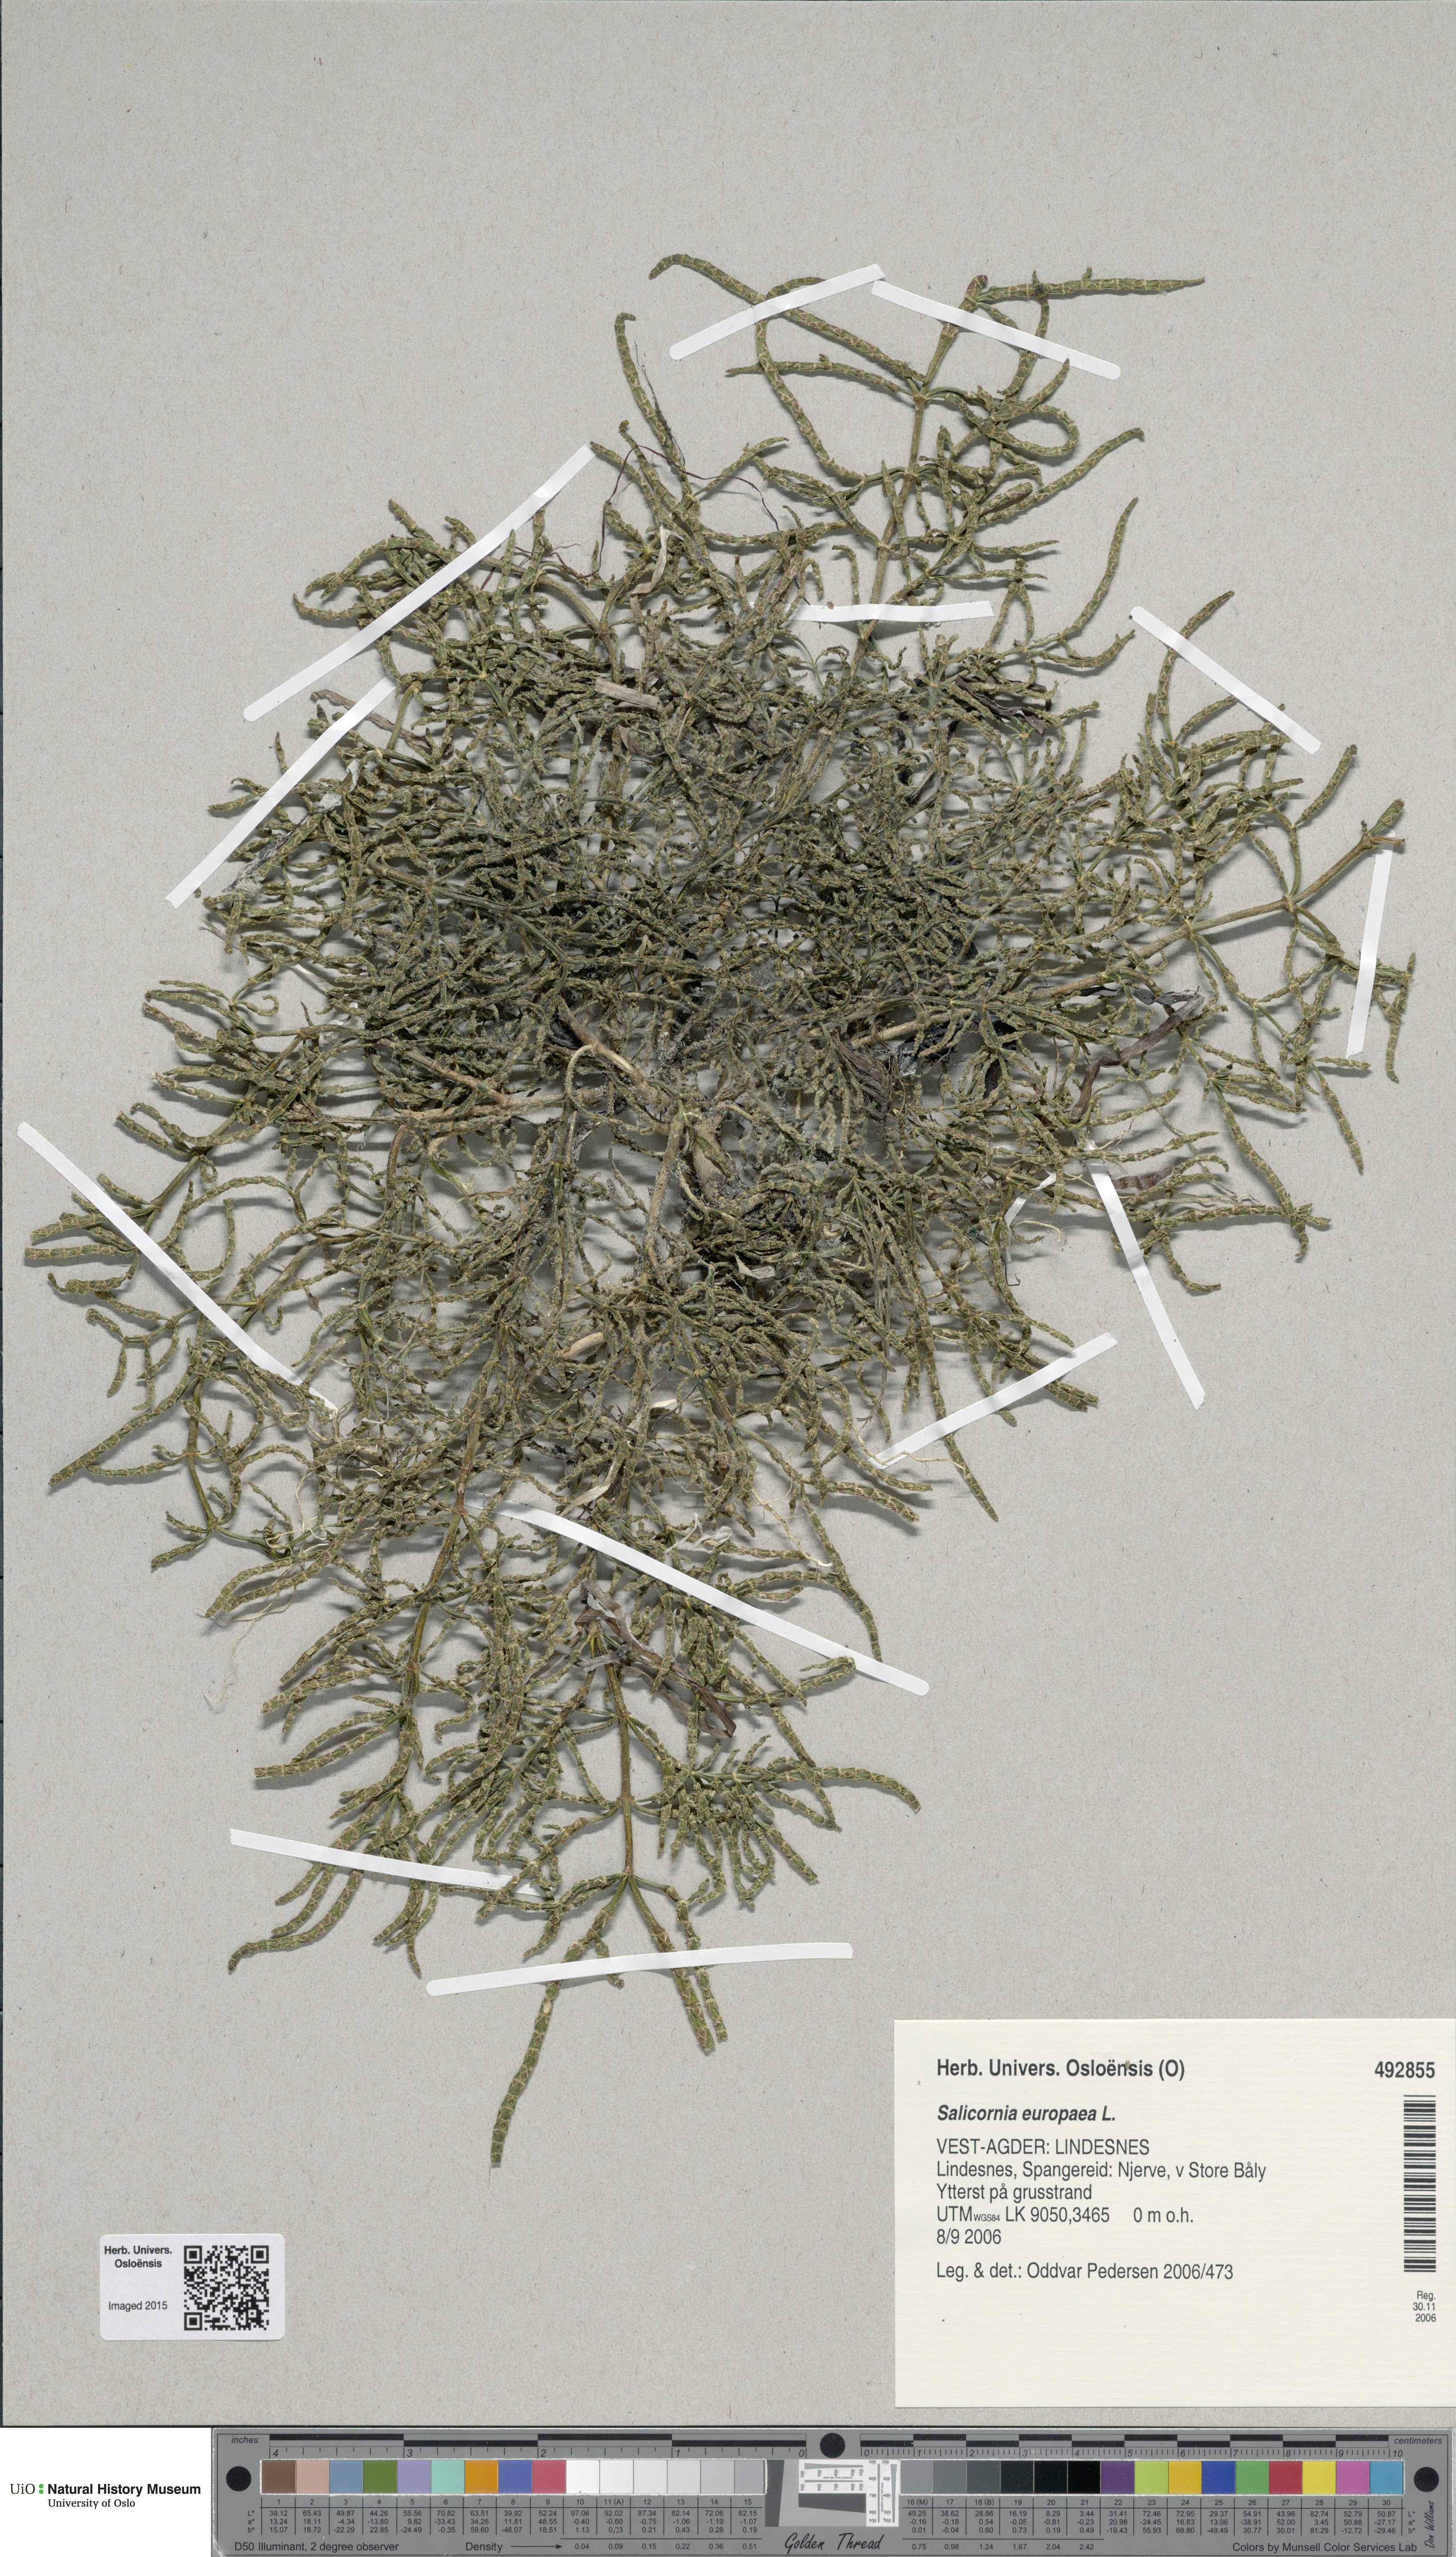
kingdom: Plantae
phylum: Tracheophyta
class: Magnoliopsida
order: Caryophyllales
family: Amaranthaceae
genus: Salicornia
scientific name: Salicornia europaea
